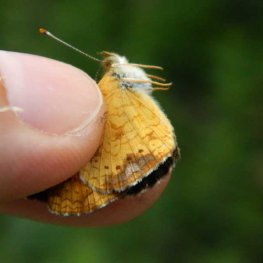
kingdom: Animalia
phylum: Arthropoda
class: Insecta
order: Lepidoptera
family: Nymphalidae
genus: Phyciodes
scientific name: Phyciodes tharos
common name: Northern Crescent
